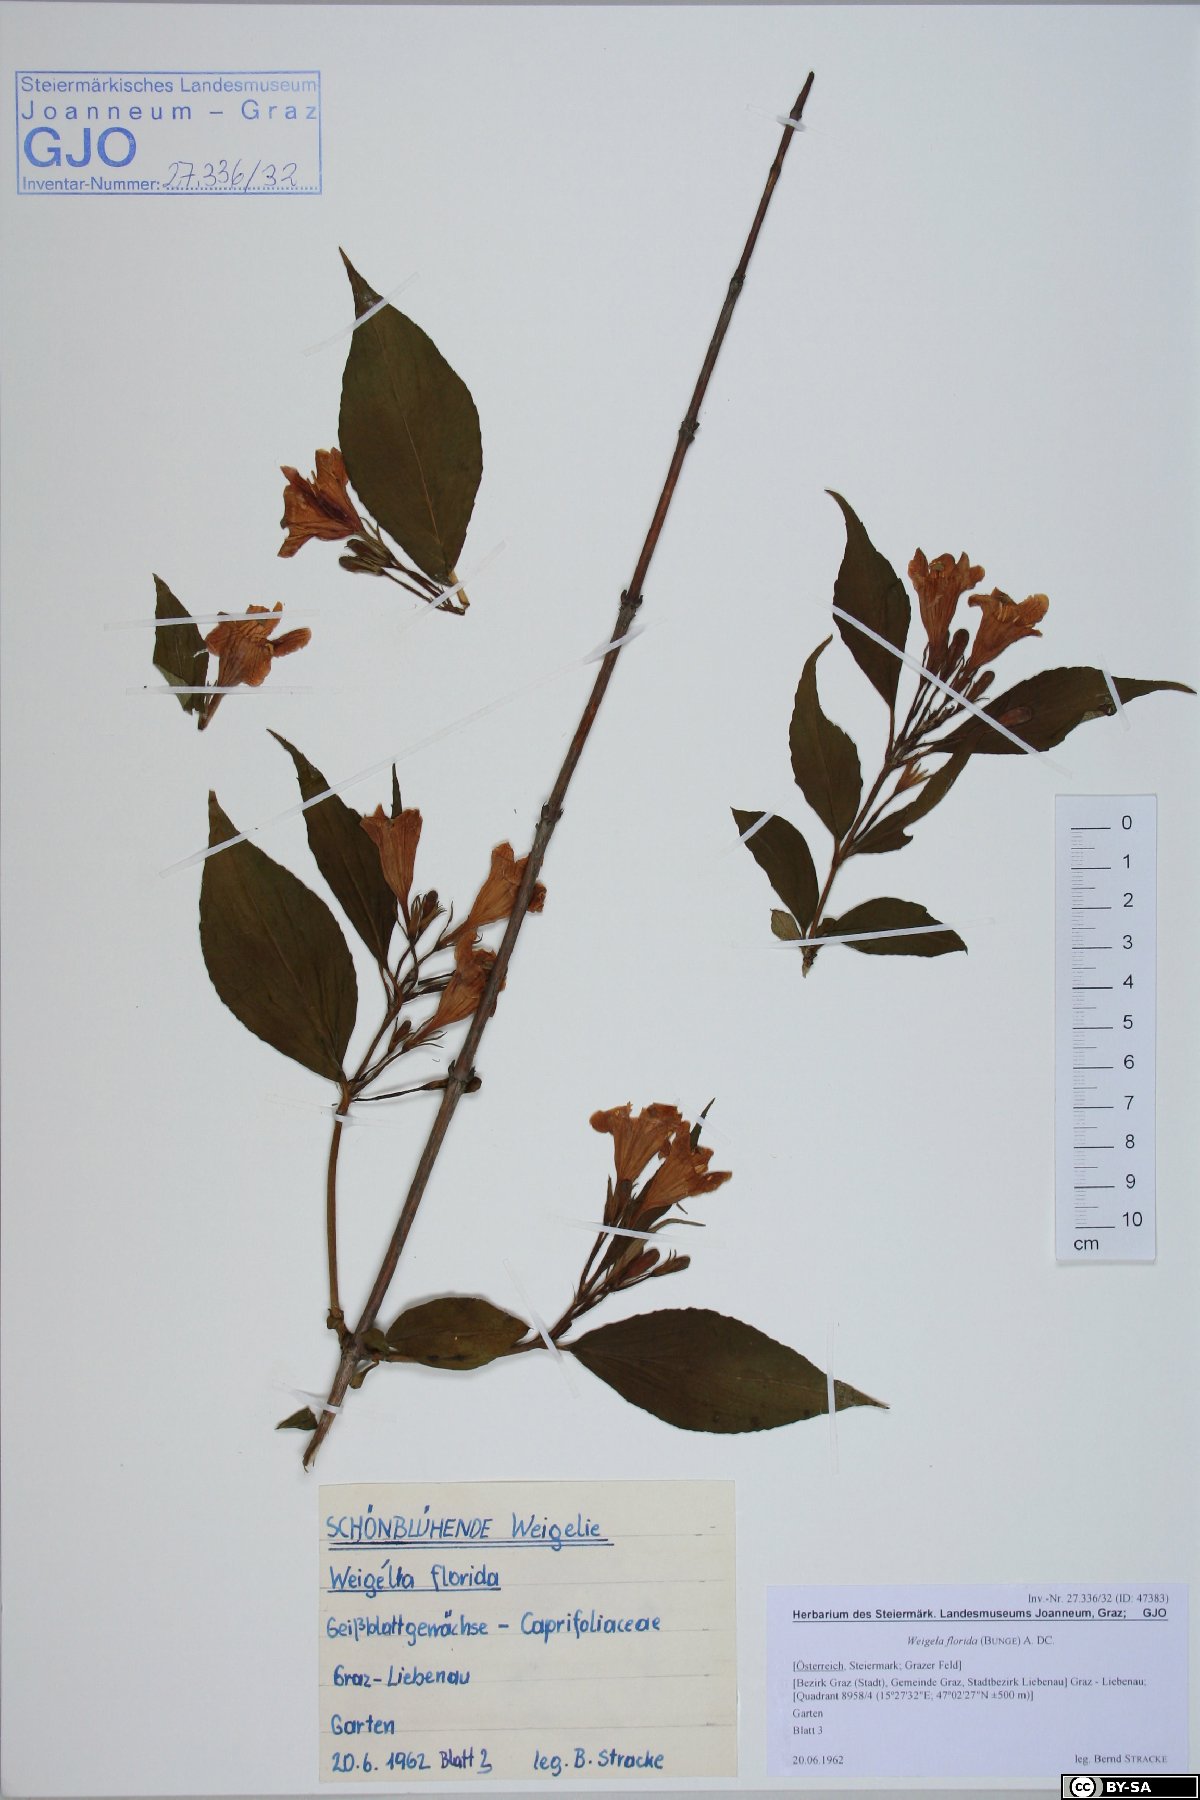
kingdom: Plantae
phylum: Tracheophyta
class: Magnoliopsida
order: Dipsacales
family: Caprifoliaceae
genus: Weigela
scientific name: Weigela florida
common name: Weigelia
